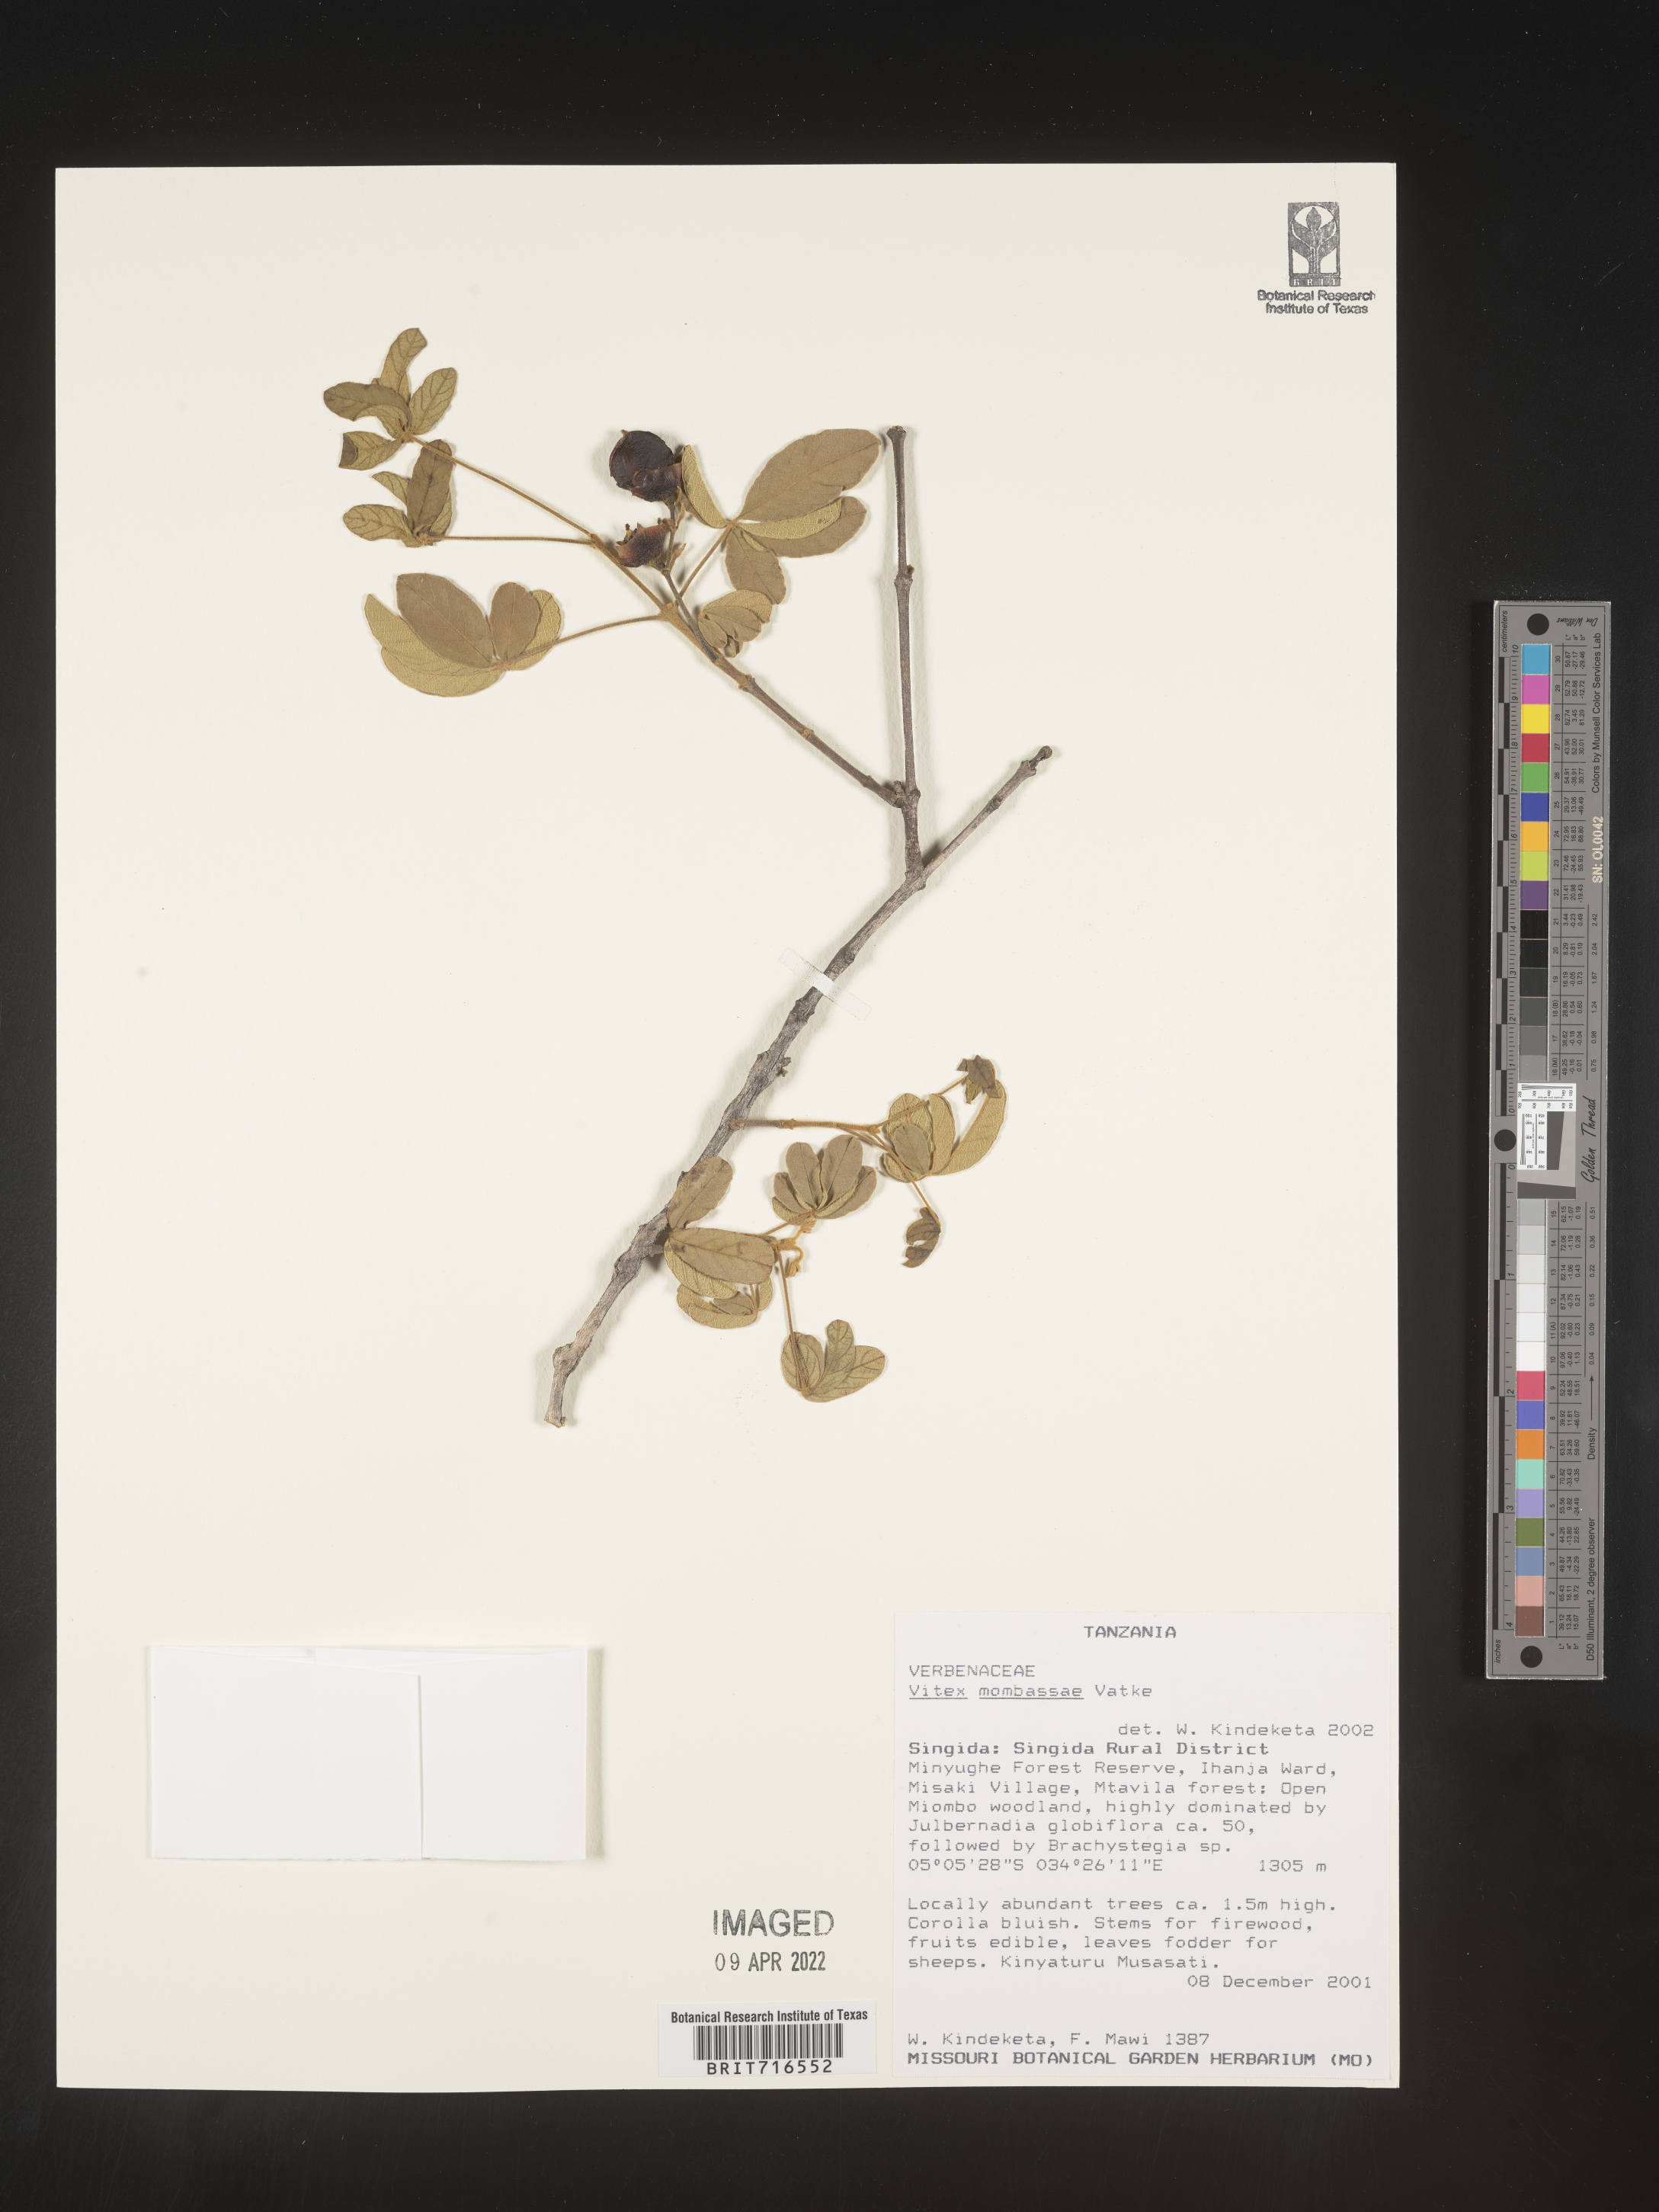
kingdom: Plantae
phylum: Tracheophyta
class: Magnoliopsida
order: Lamiales
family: Lamiaceae
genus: Vitex
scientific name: Vitex
